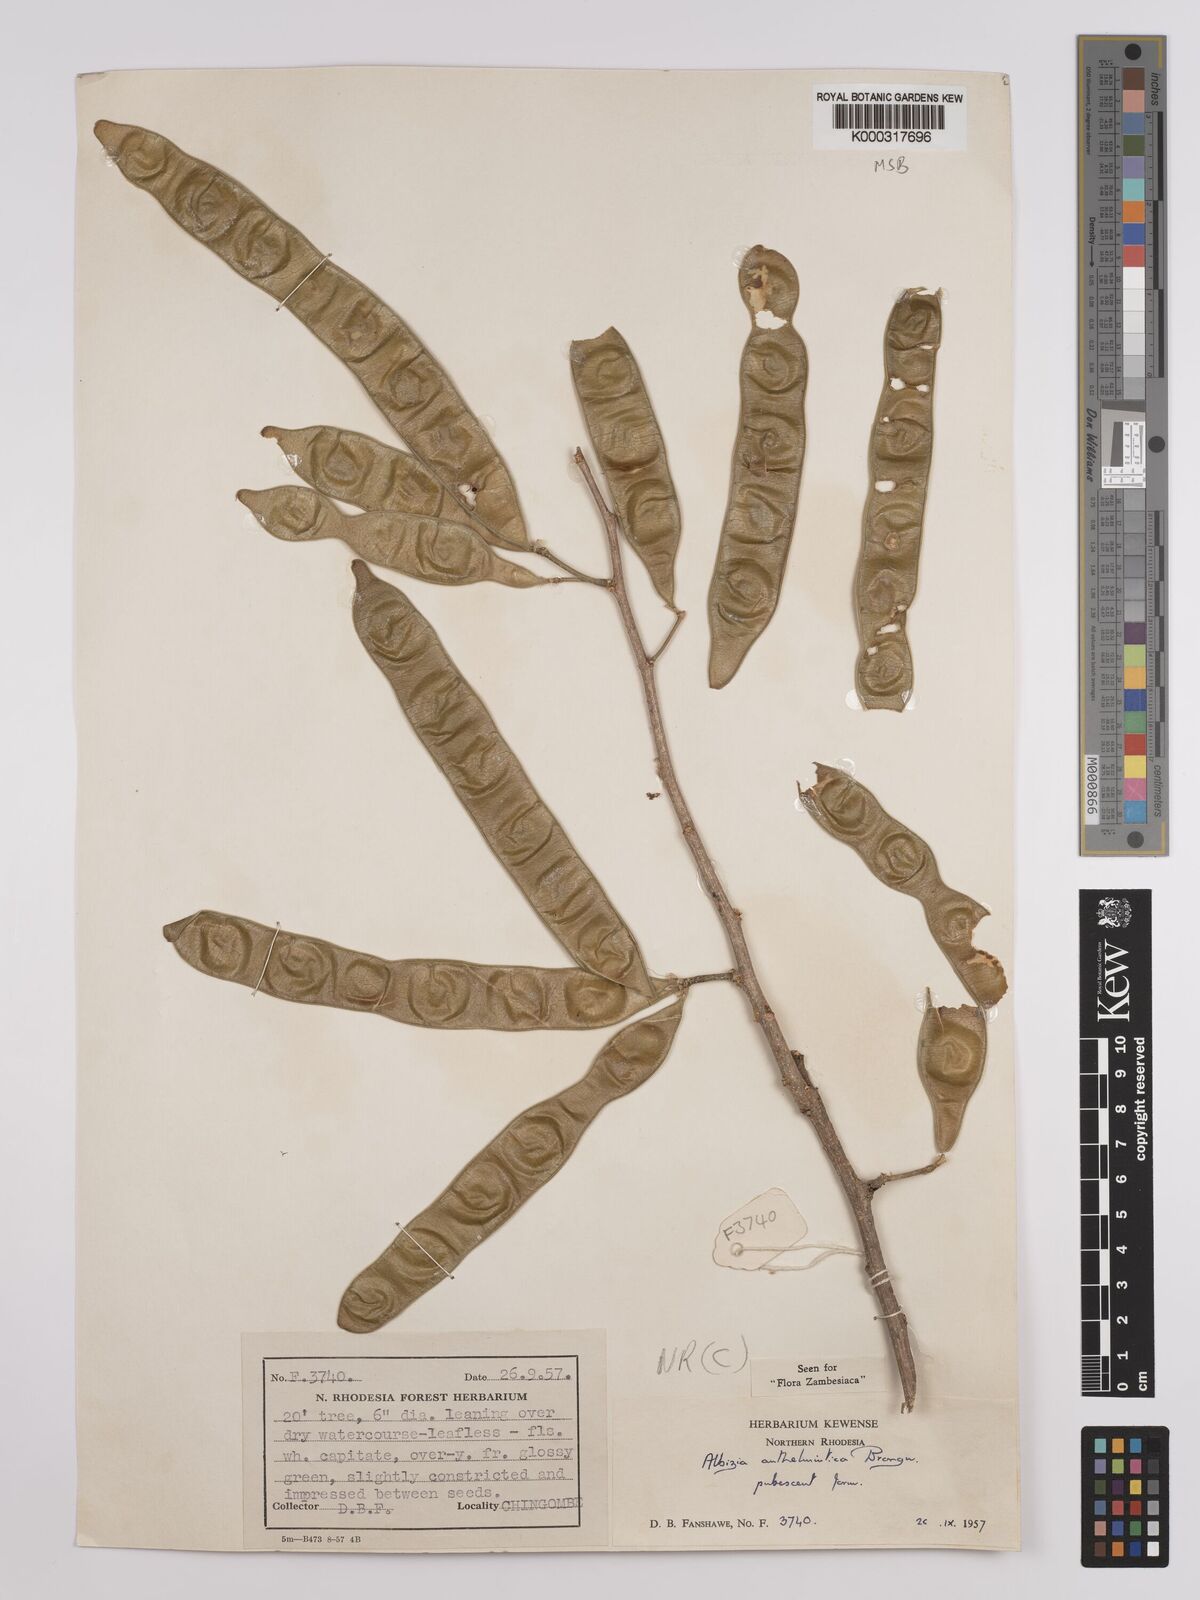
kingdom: Plantae
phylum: Tracheophyta
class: Magnoliopsida
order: Fabales
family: Fabaceae
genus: Albizia
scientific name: Albizia anthelmintica
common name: Worm-bark false-thorn
